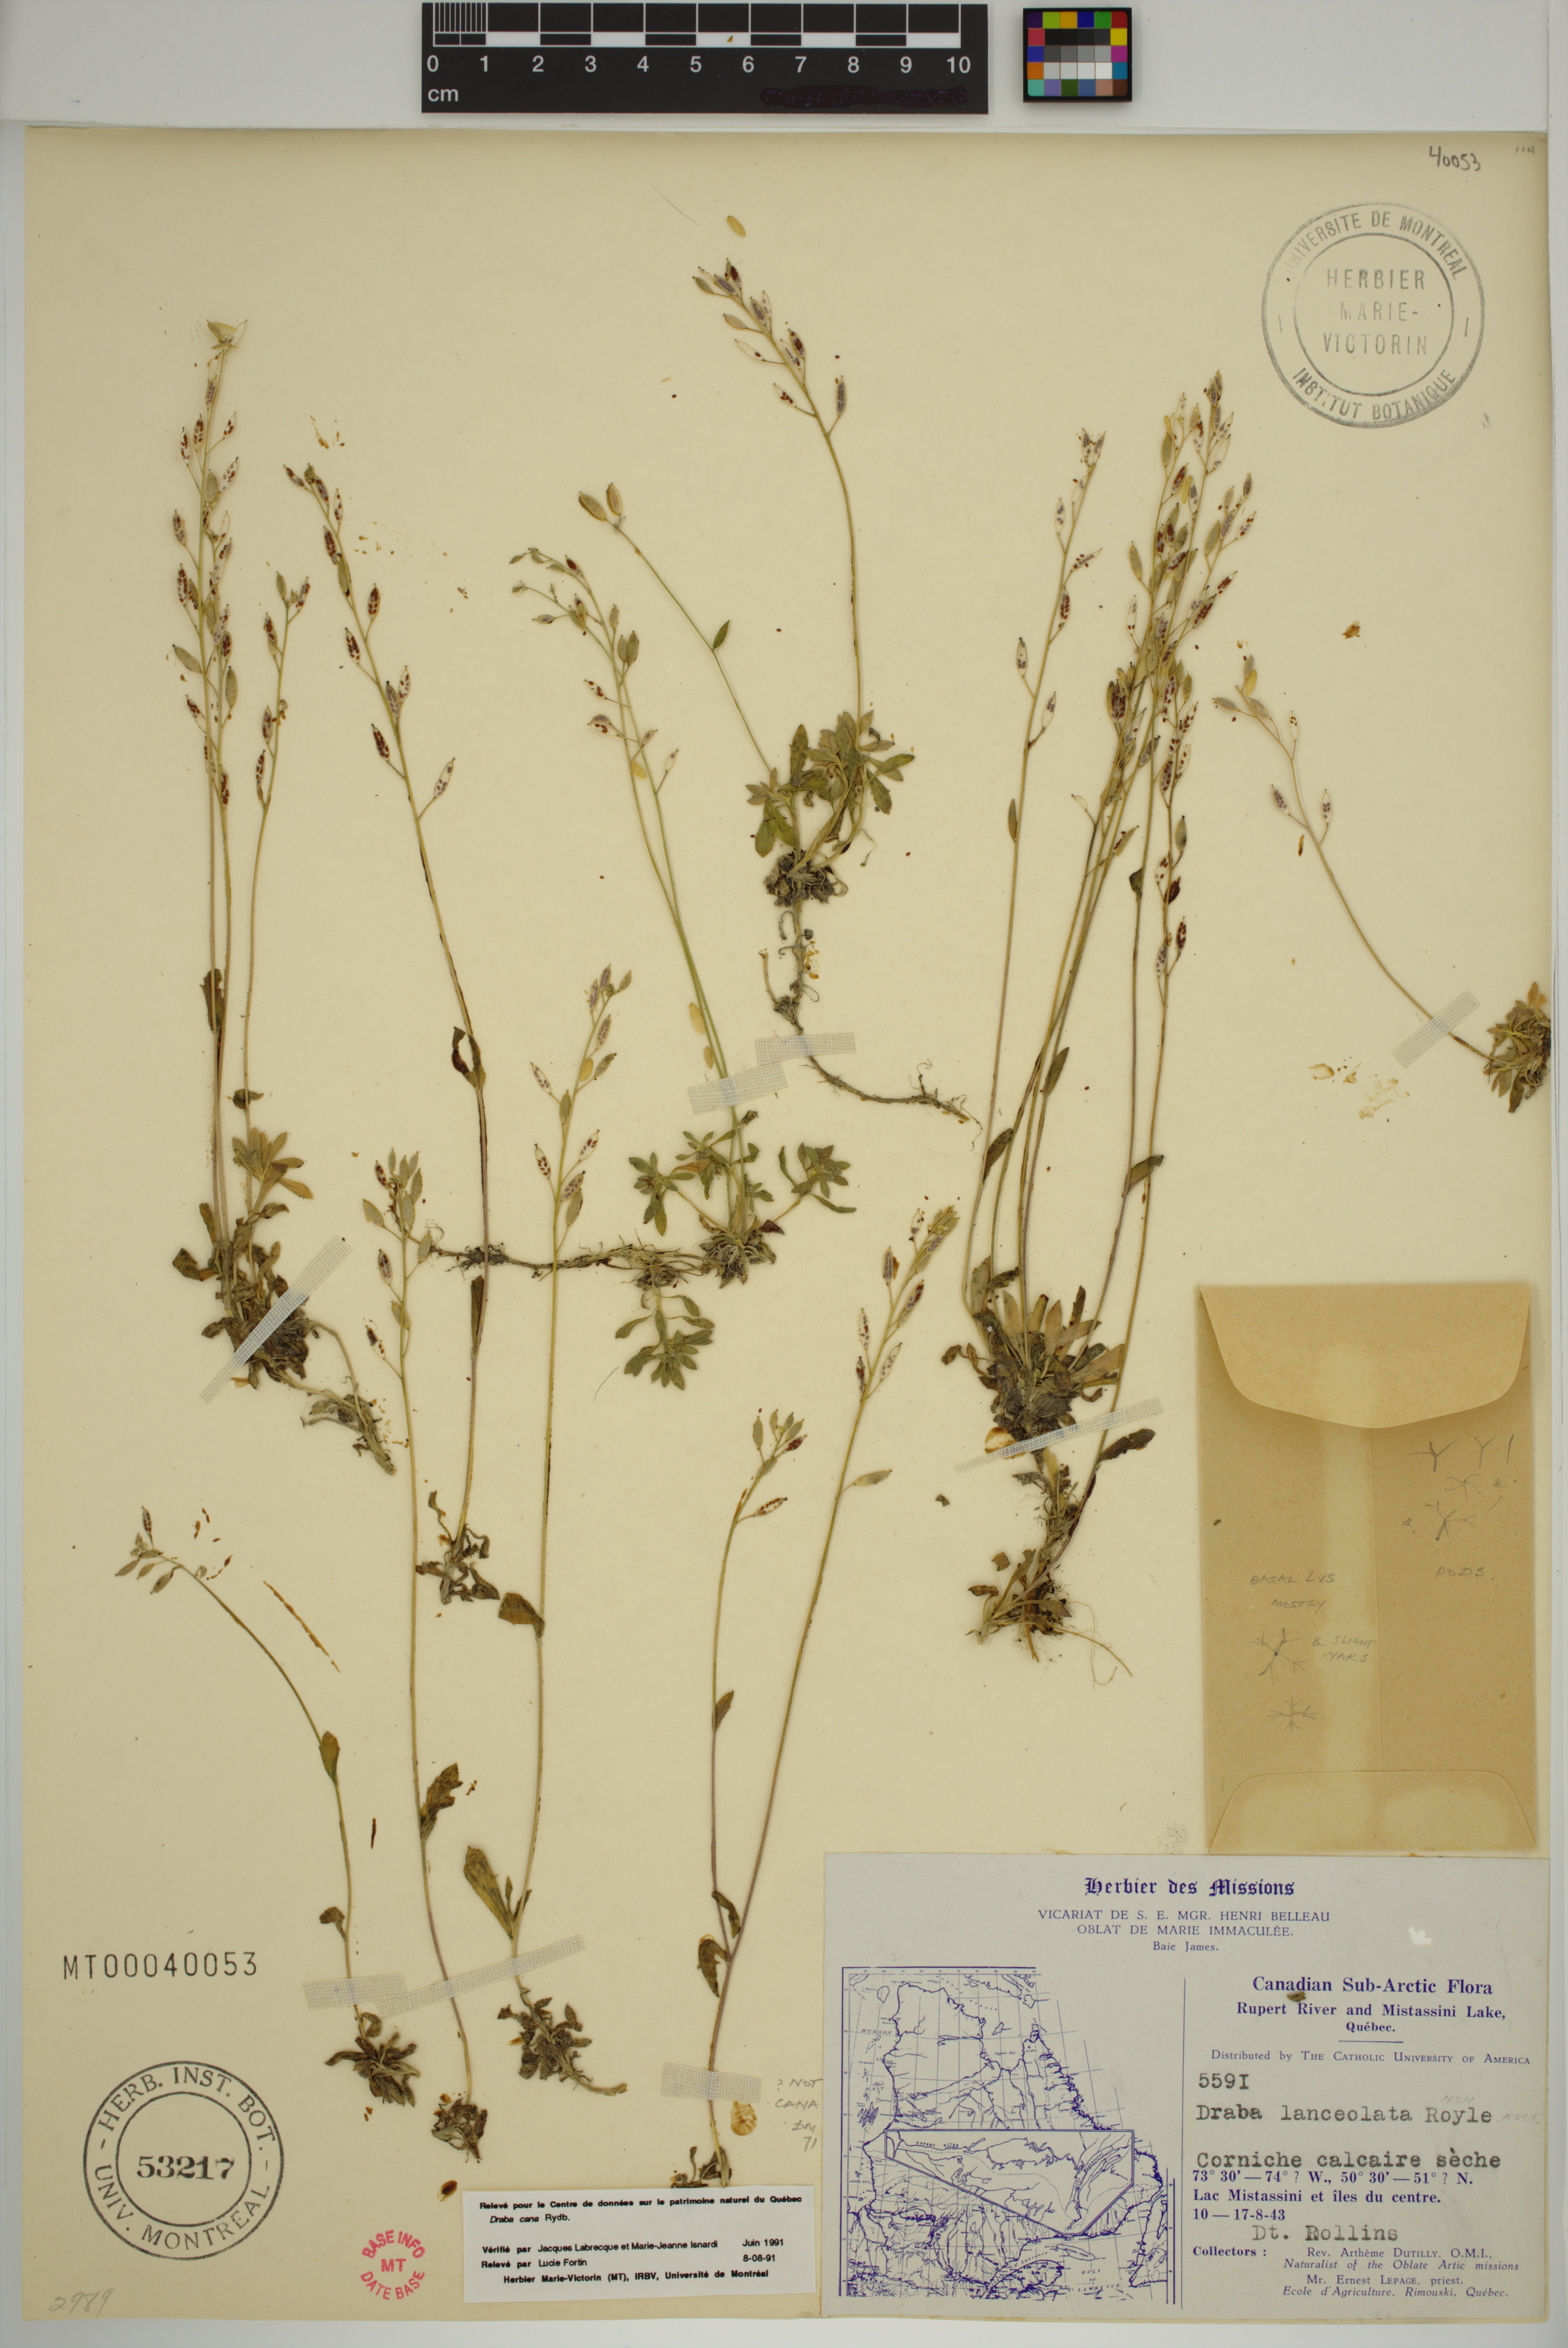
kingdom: Plantae
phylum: Tracheophyta
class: Magnoliopsida
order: Brassicales
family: Brassicaceae
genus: Draba
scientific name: Draba cana
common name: Hoary draba
